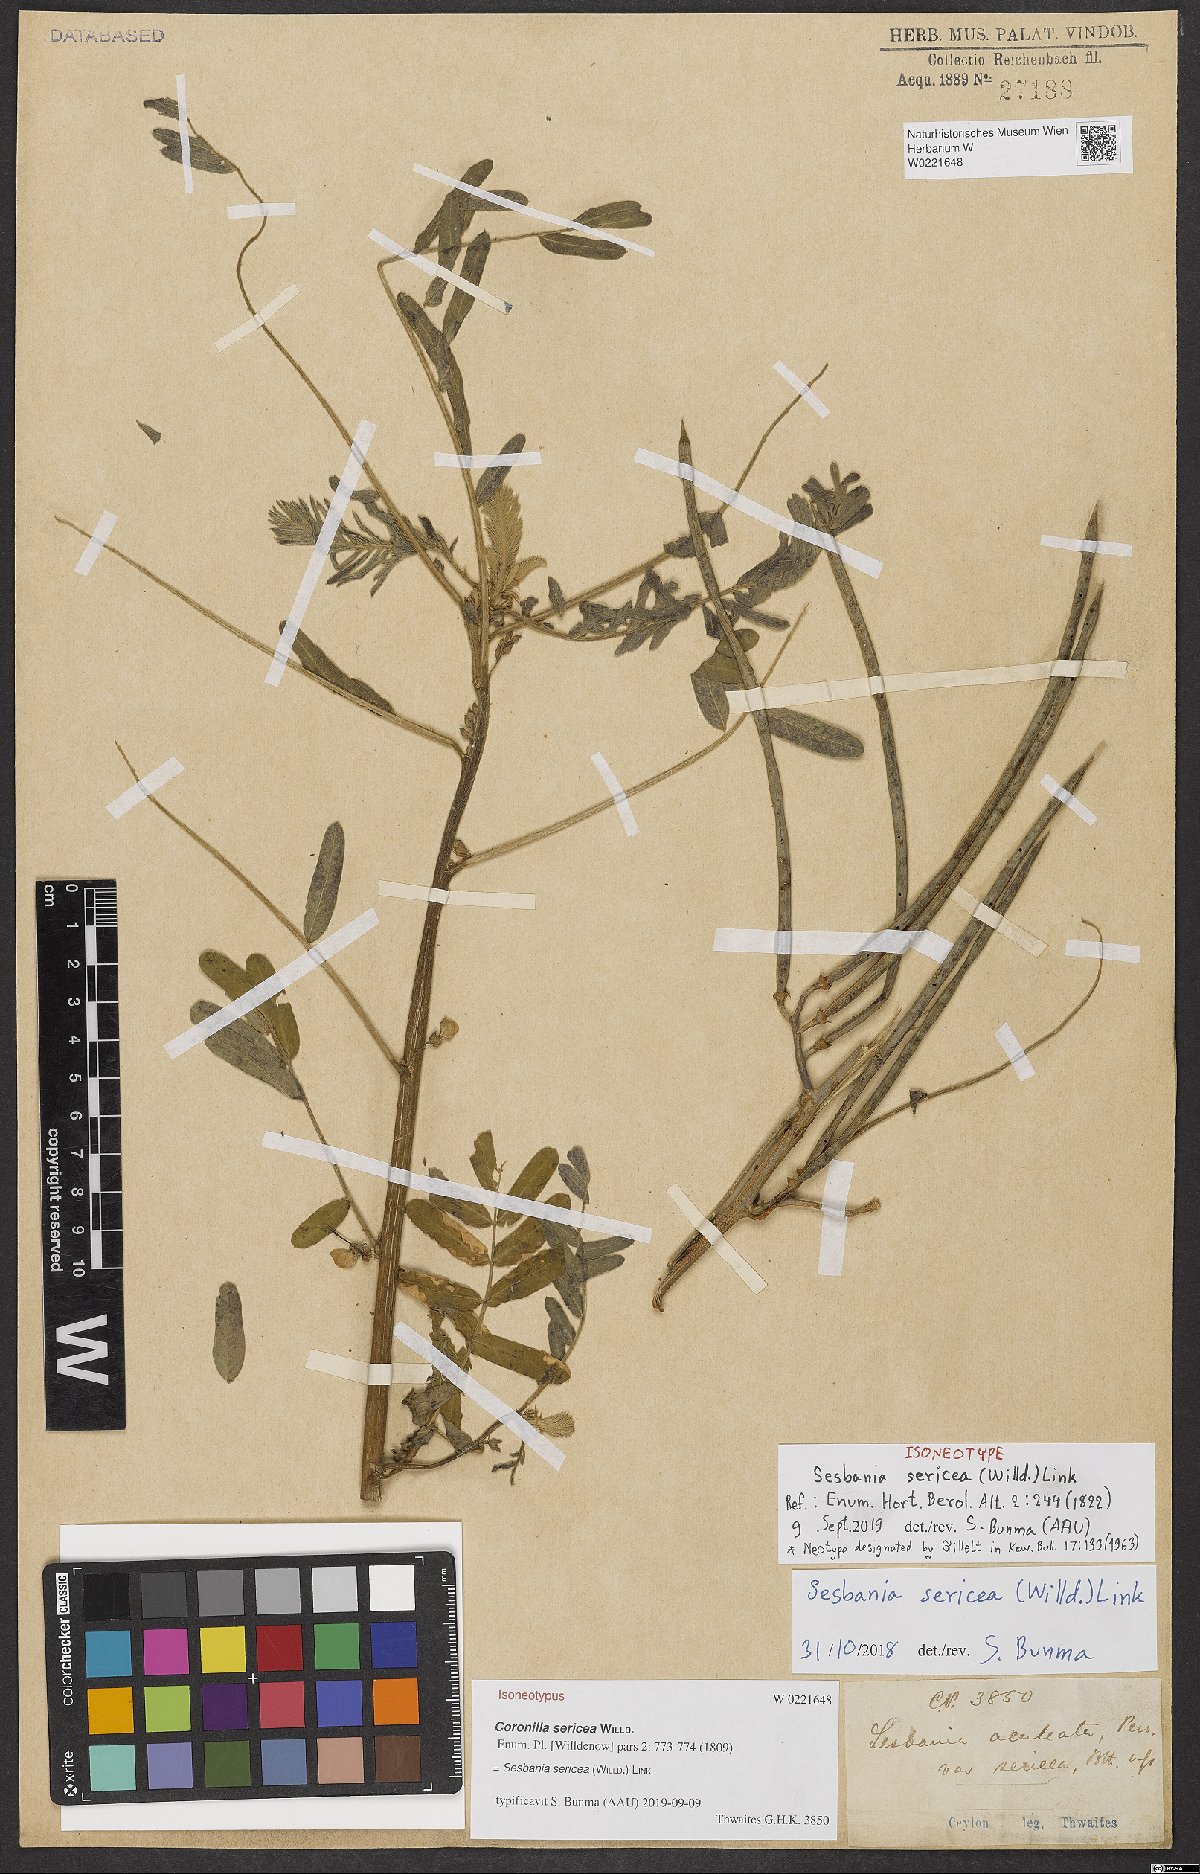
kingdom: Plantae
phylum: Tracheophyta
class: Magnoliopsida
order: Fabales
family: Fabaceae
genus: Sesbania
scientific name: Sesbania sericea
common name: Papagayo
